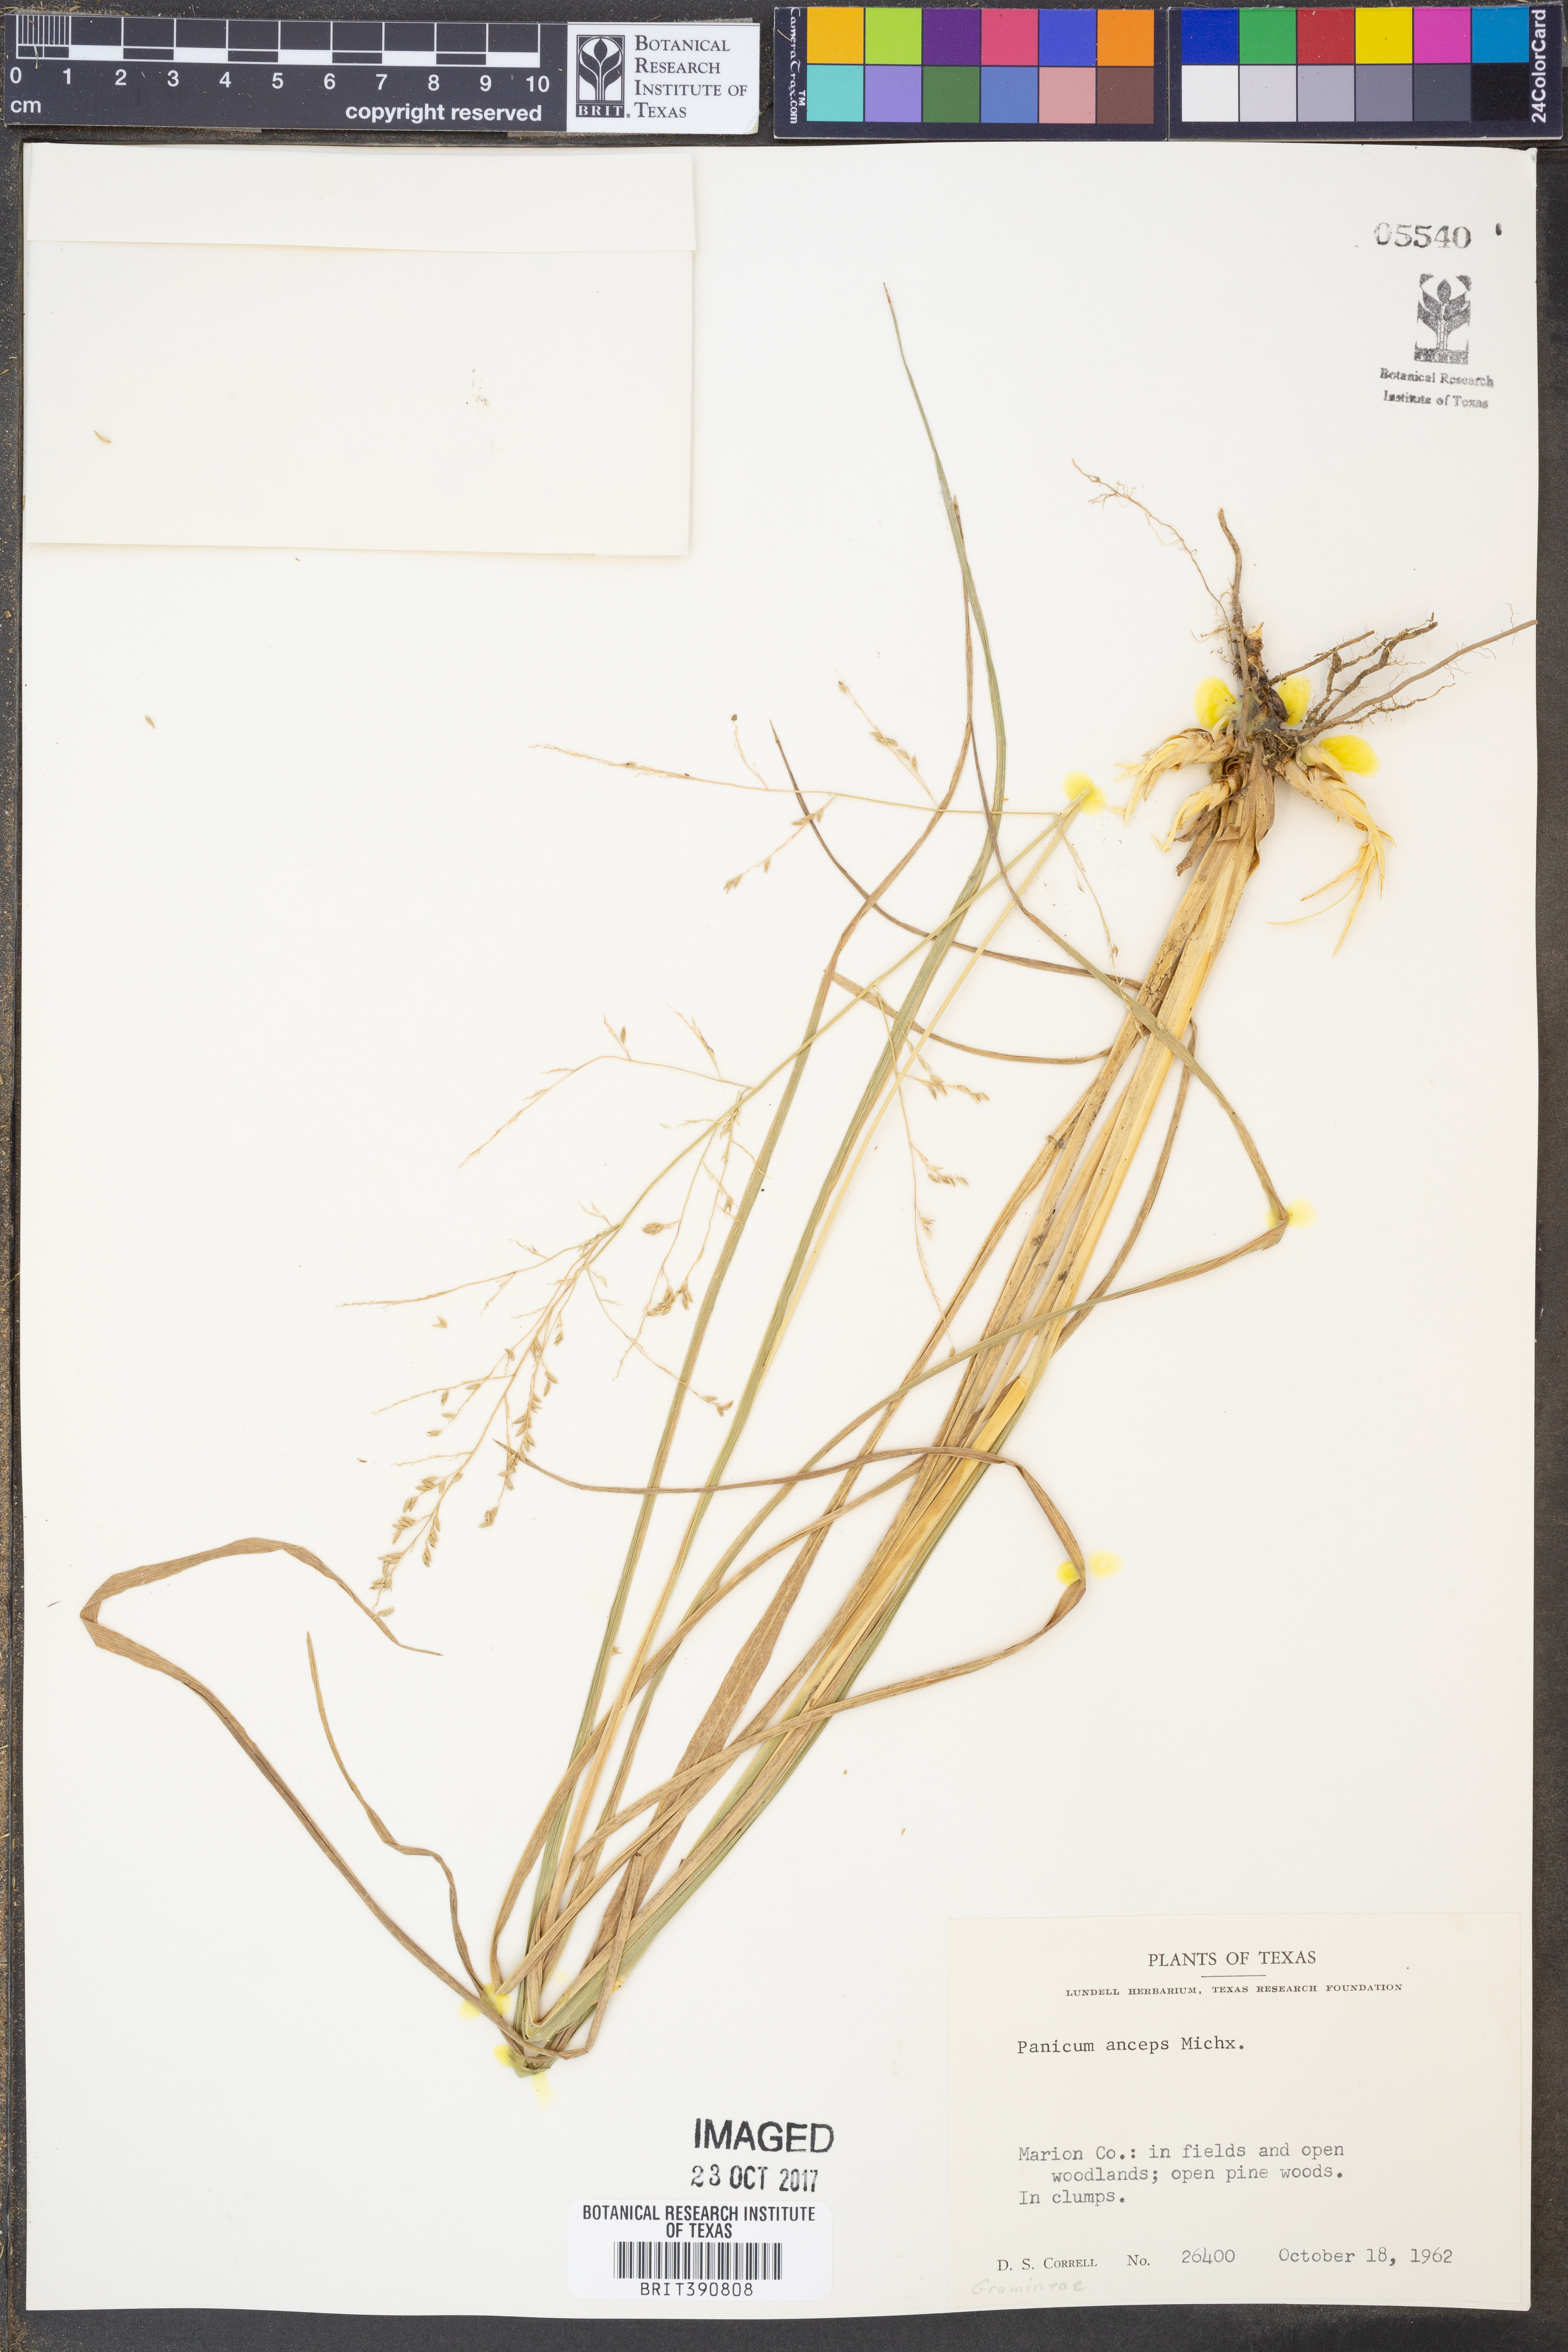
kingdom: Plantae
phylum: Tracheophyta
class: Liliopsida
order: Poales
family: Poaceae
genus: Coleataenia
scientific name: Coleataenia anceps
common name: Beaked panic grass
